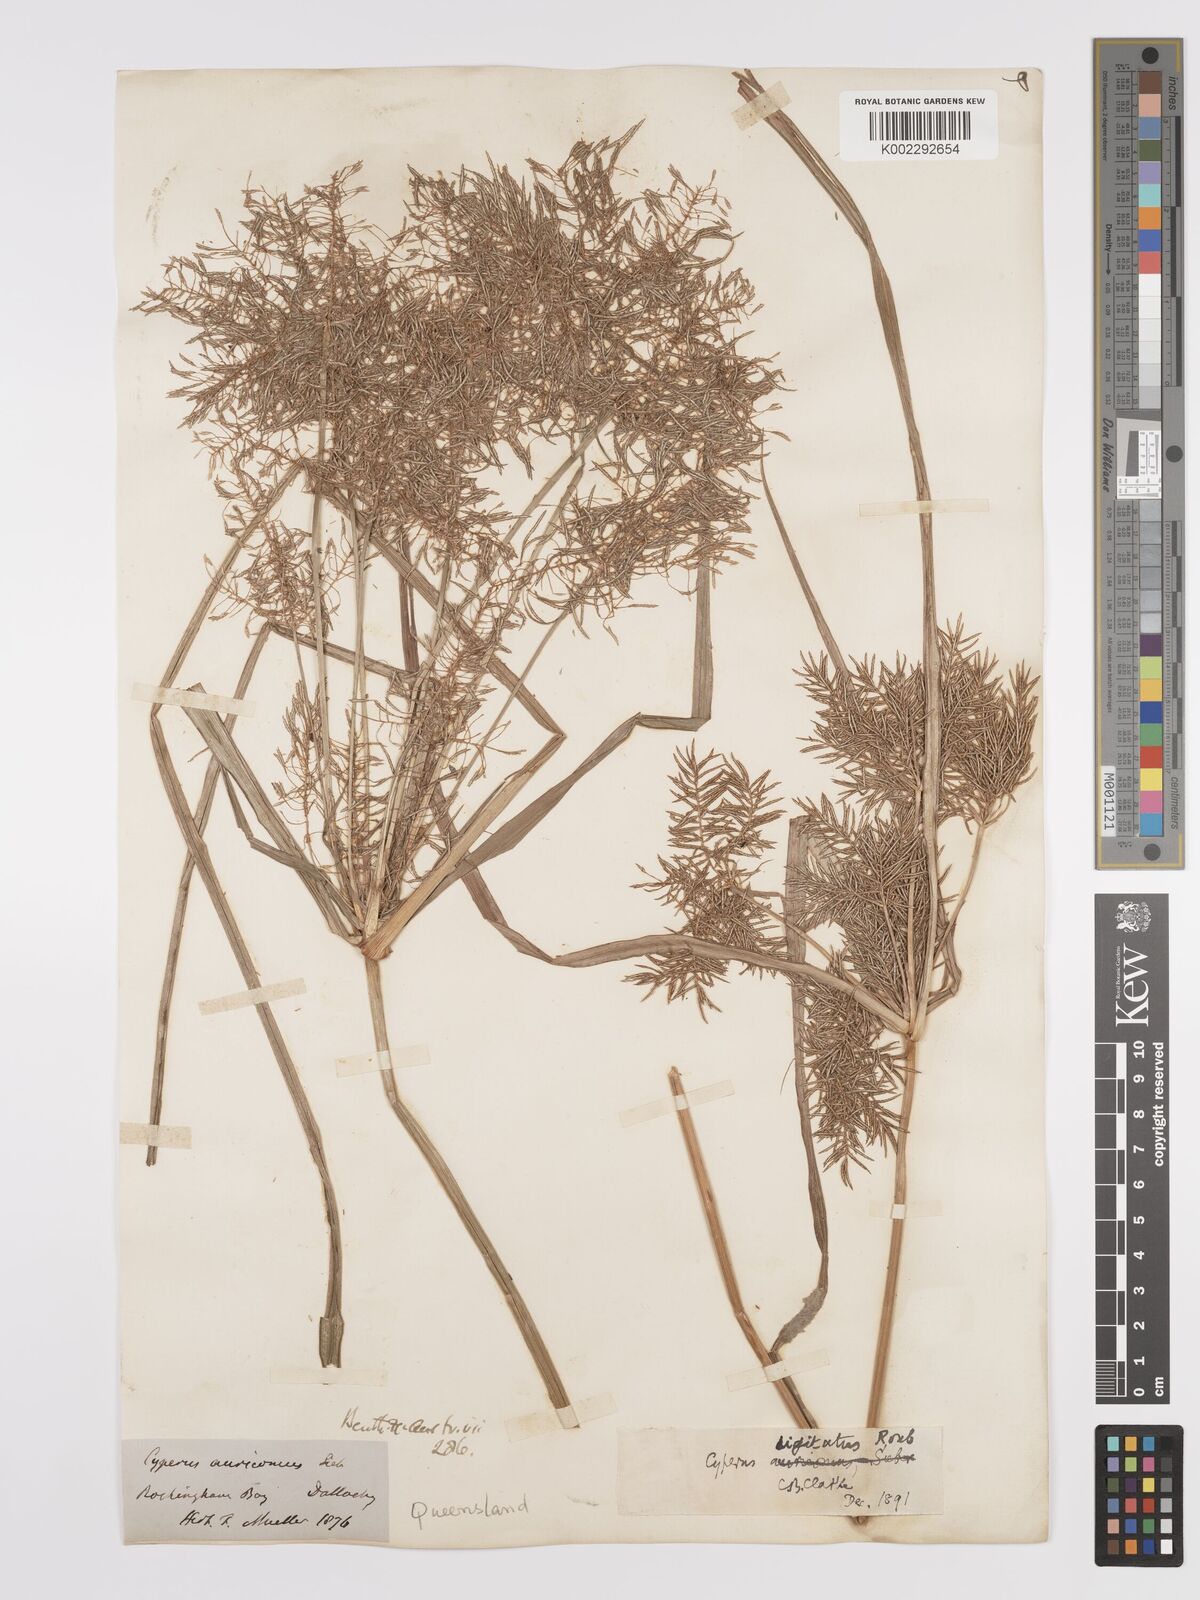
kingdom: Plantae
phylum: Tracheophyta
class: Liliopsida
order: Poales
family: Cyperaceae
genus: Cyperus
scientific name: Cyperus digitatus
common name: Finger flatsedge
